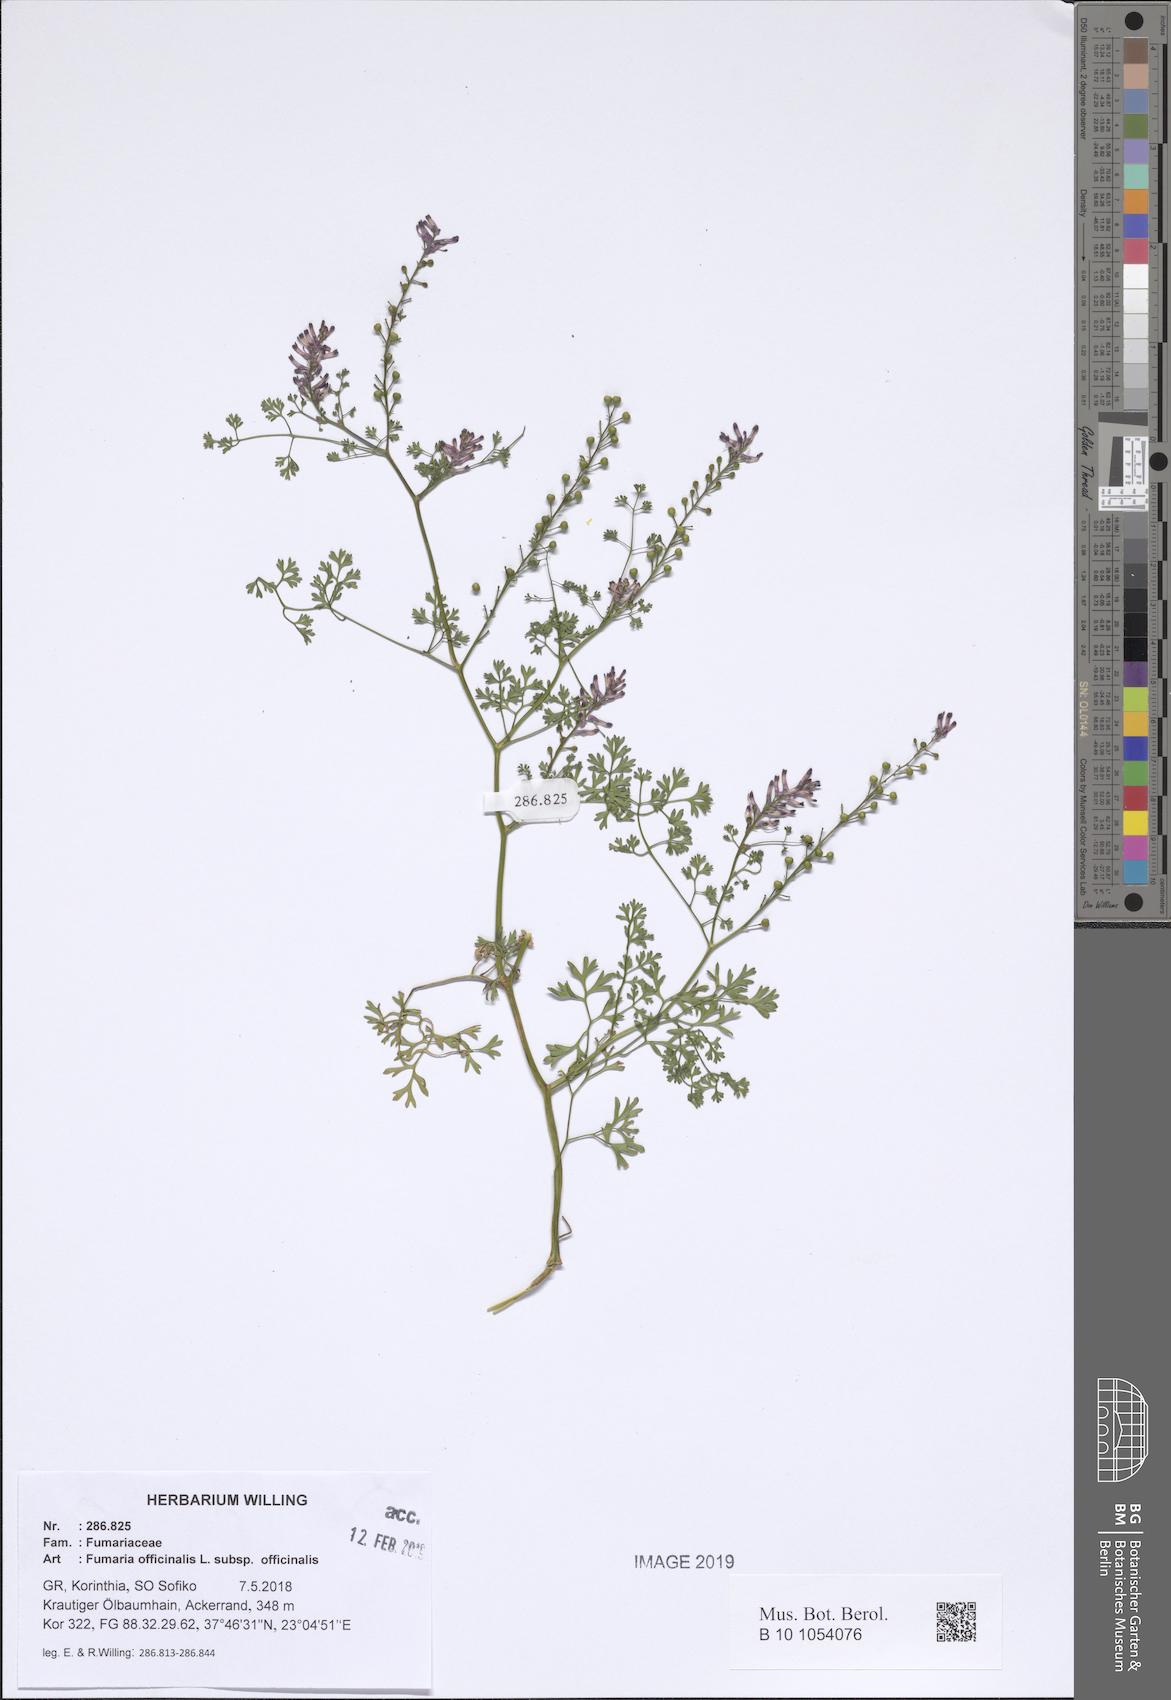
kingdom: Plantae
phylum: Tracheophyta
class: Magnoliopsida
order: Ranunculales
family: Papaveraceae
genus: Fumaria
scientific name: Fumaria officinalis
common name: Common fumitory
